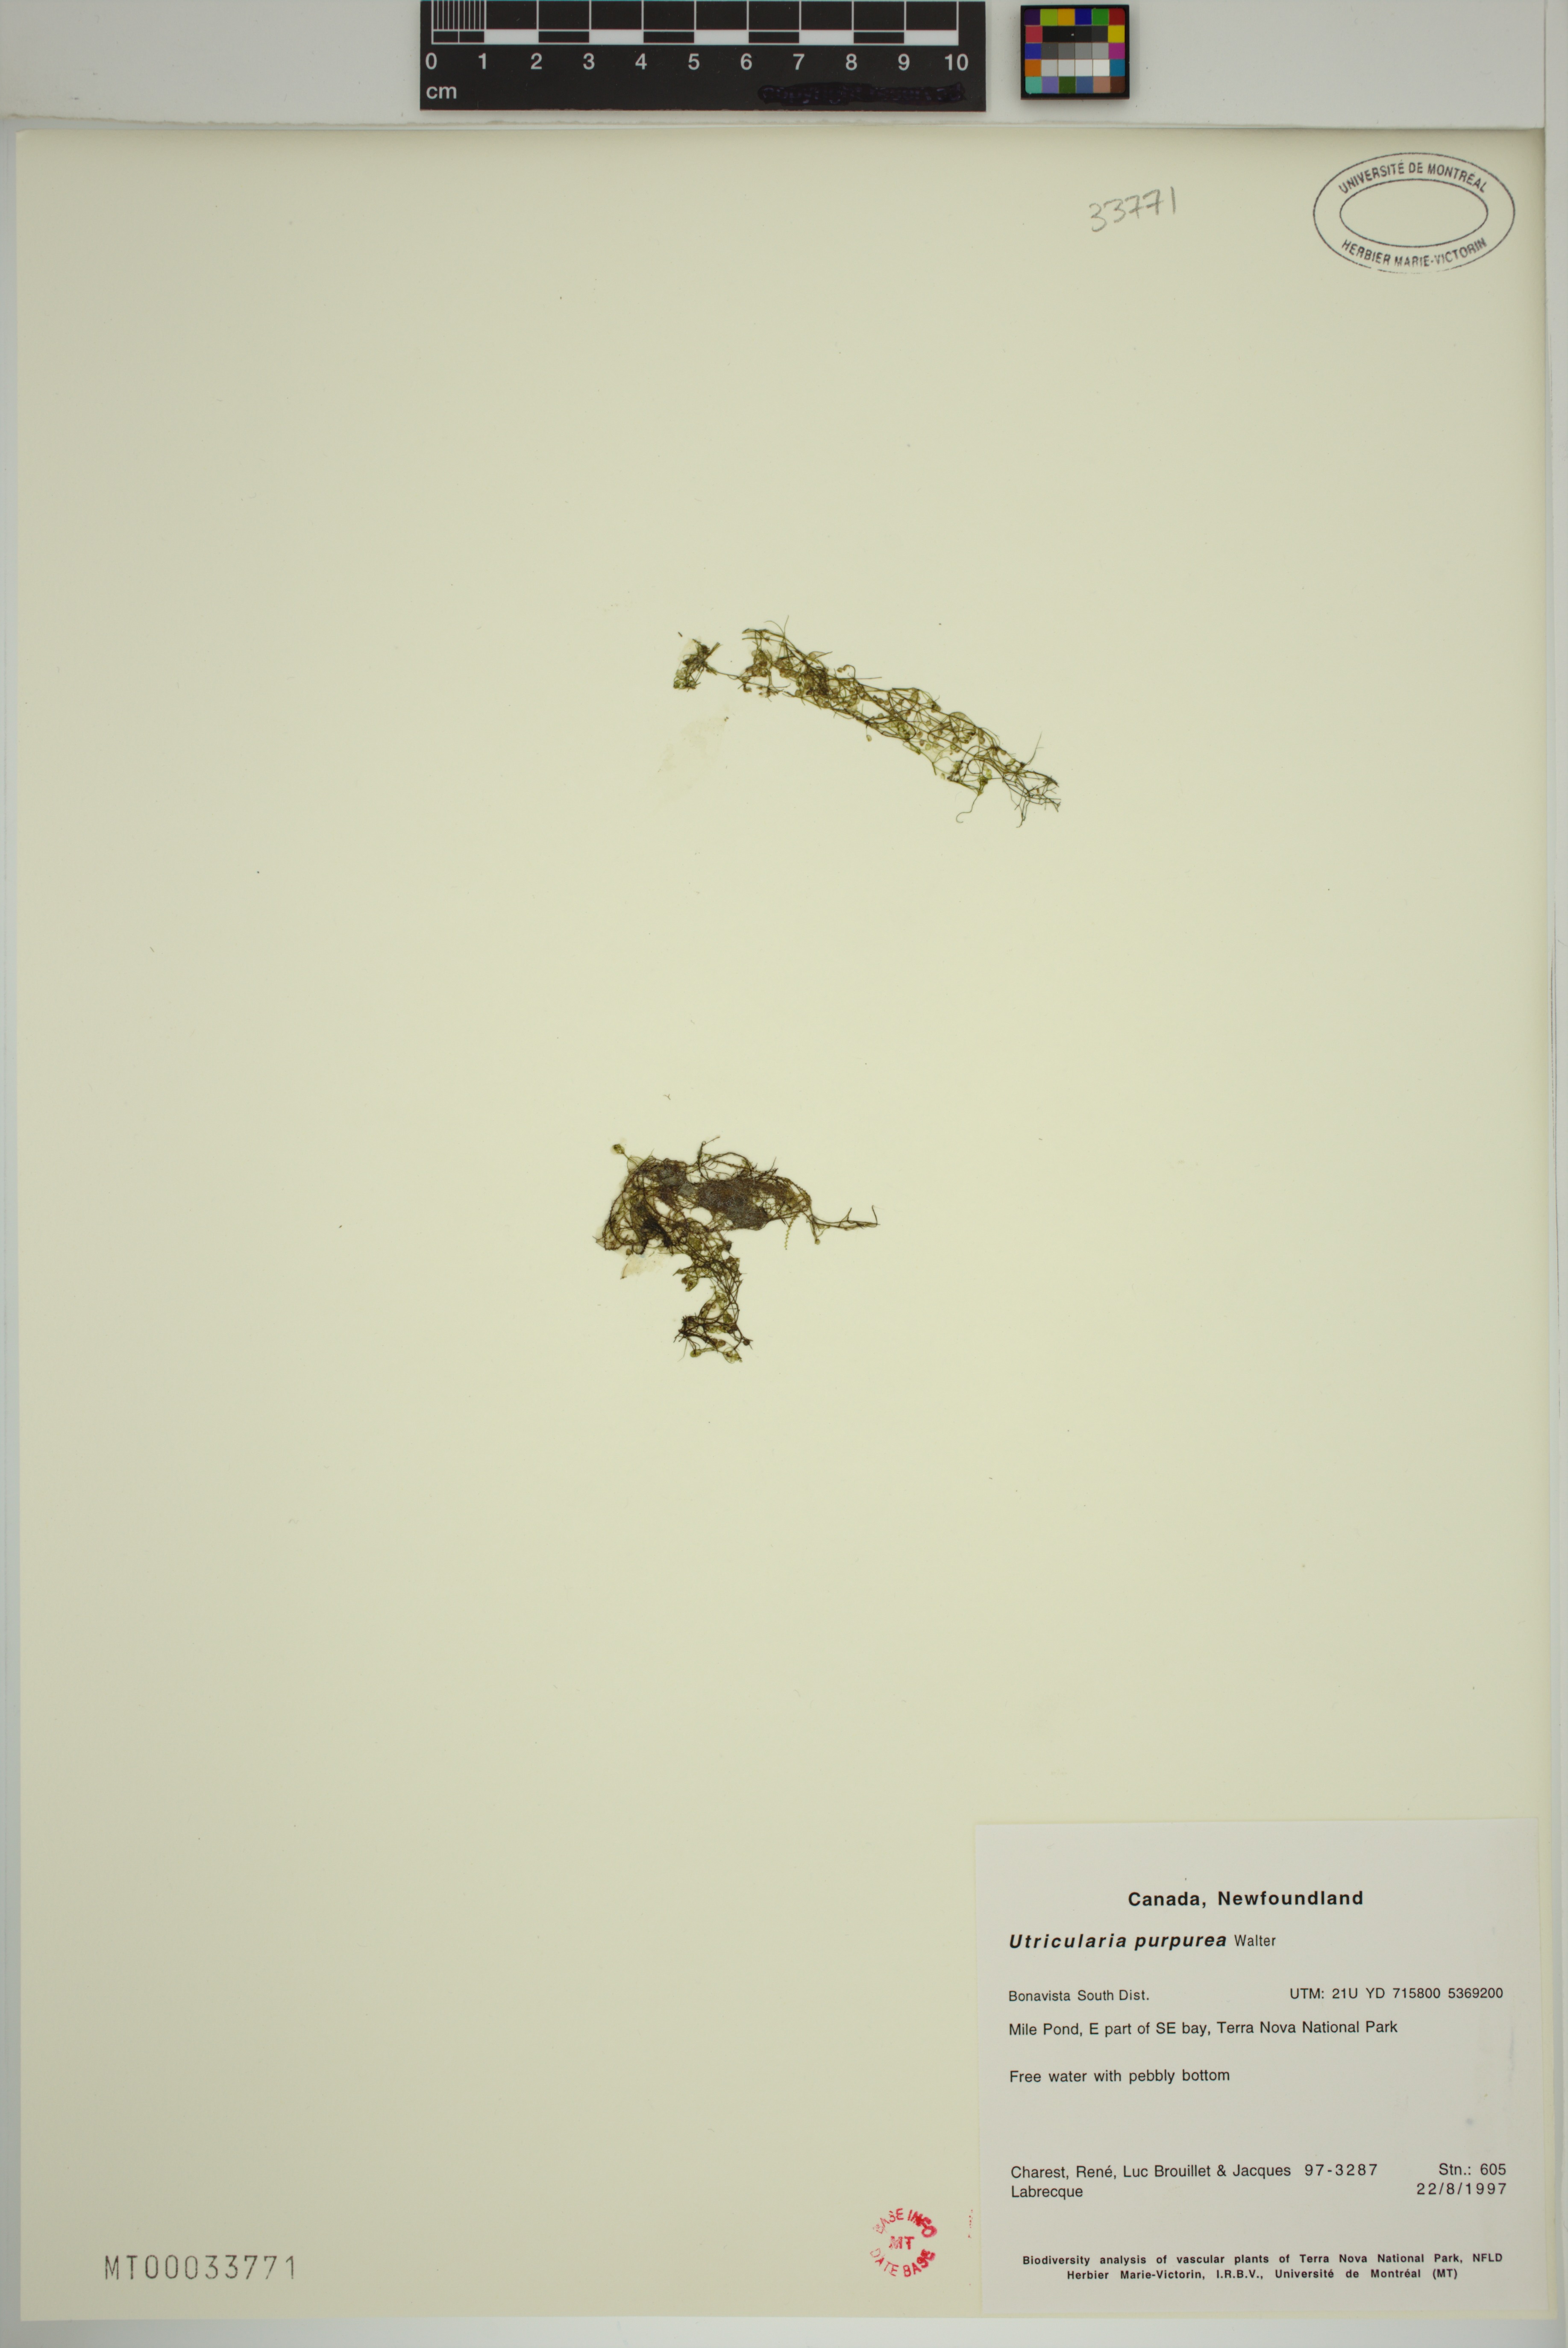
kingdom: Plantae
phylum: Tracheophyta
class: Magnoliopsida
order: Lamiales
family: Lentibulariaceae
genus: Utricularia
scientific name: Utricularia purpurea
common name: Eastern purple bladderwort
